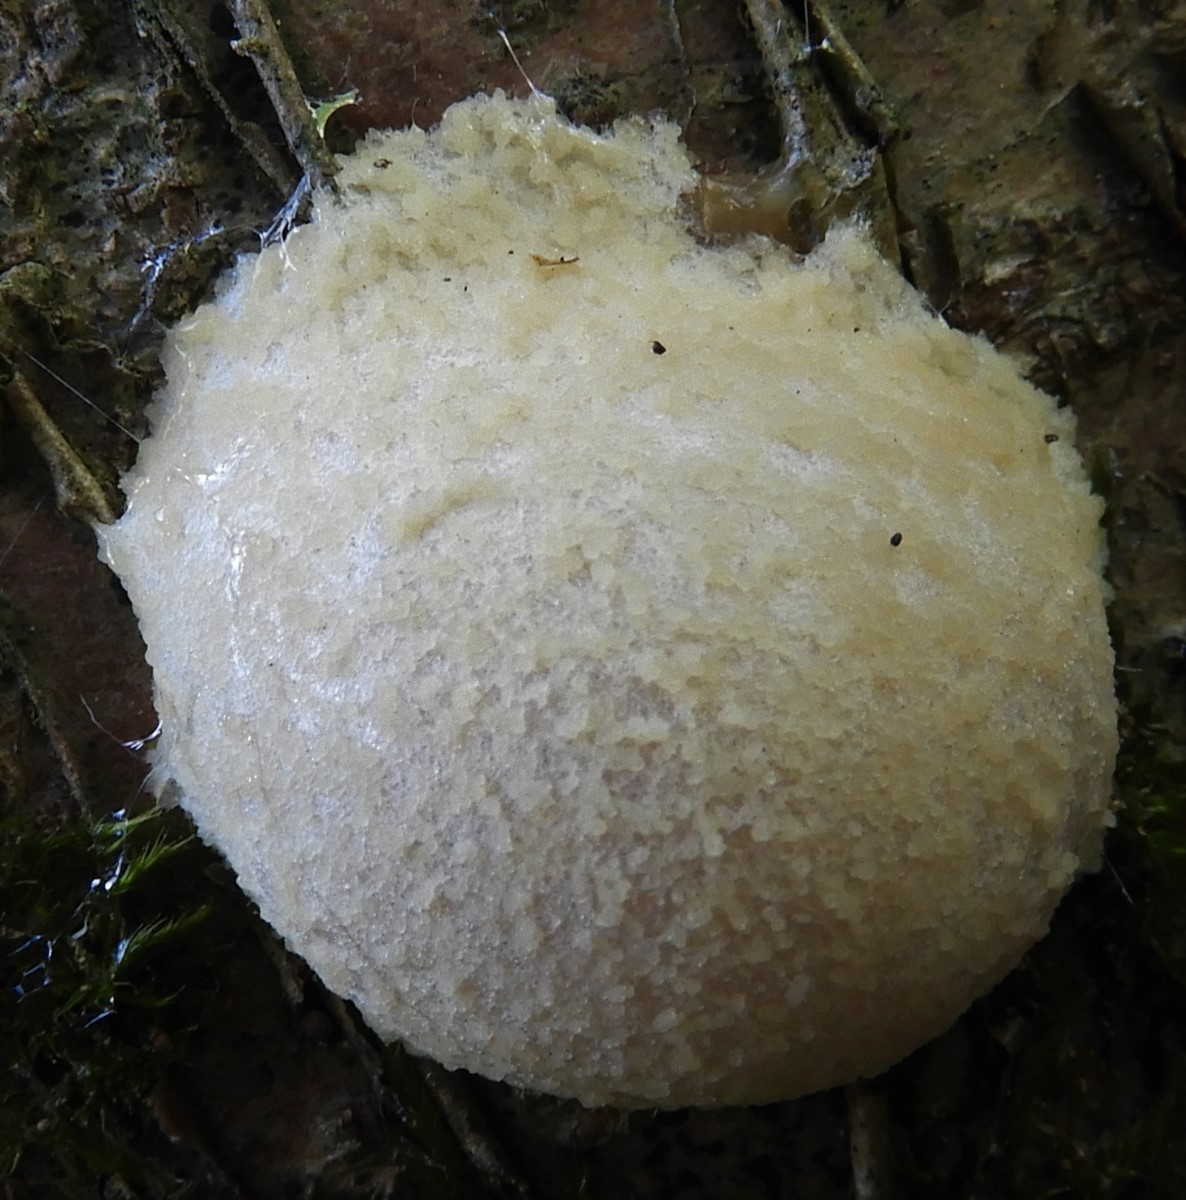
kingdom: Protozoa
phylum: Mycetozoa
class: Myxomycetes
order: Cribrariales
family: Tubiferaceae
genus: Reticularia
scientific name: Reticularia lycoperdon
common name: skinnende støvpude
